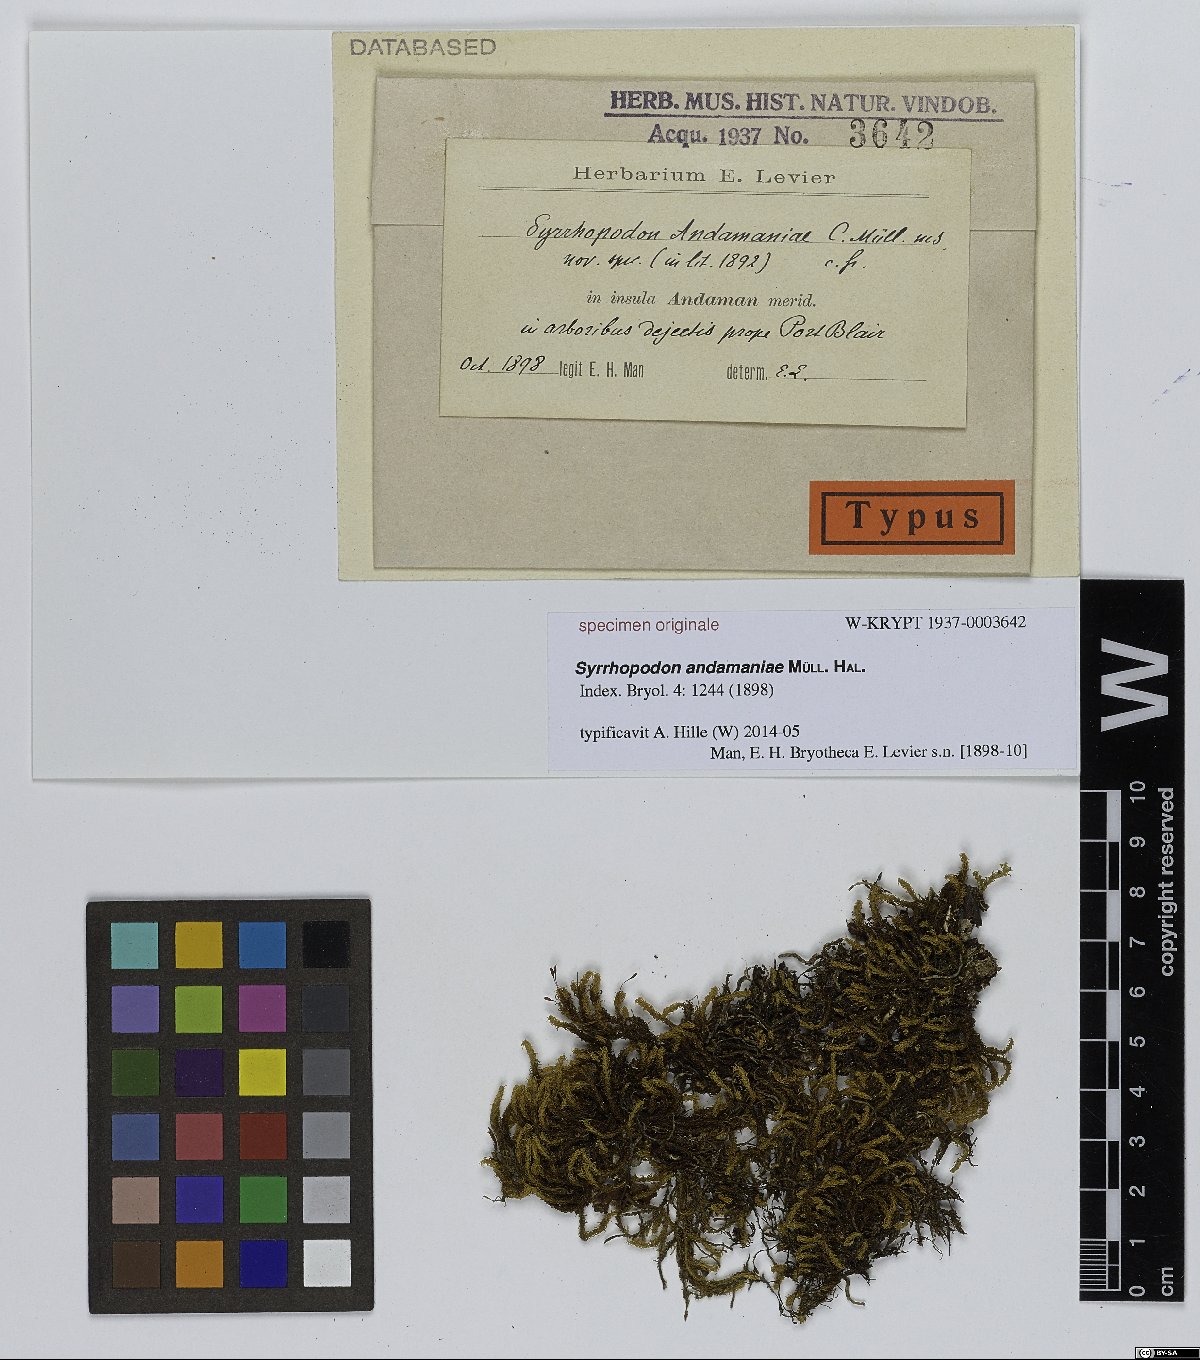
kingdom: Plantae
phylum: Bryophyta
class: Bryopsida
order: Dicranales
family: Calymperaceae
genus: Syrrhopodon
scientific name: Syrrhopodon
